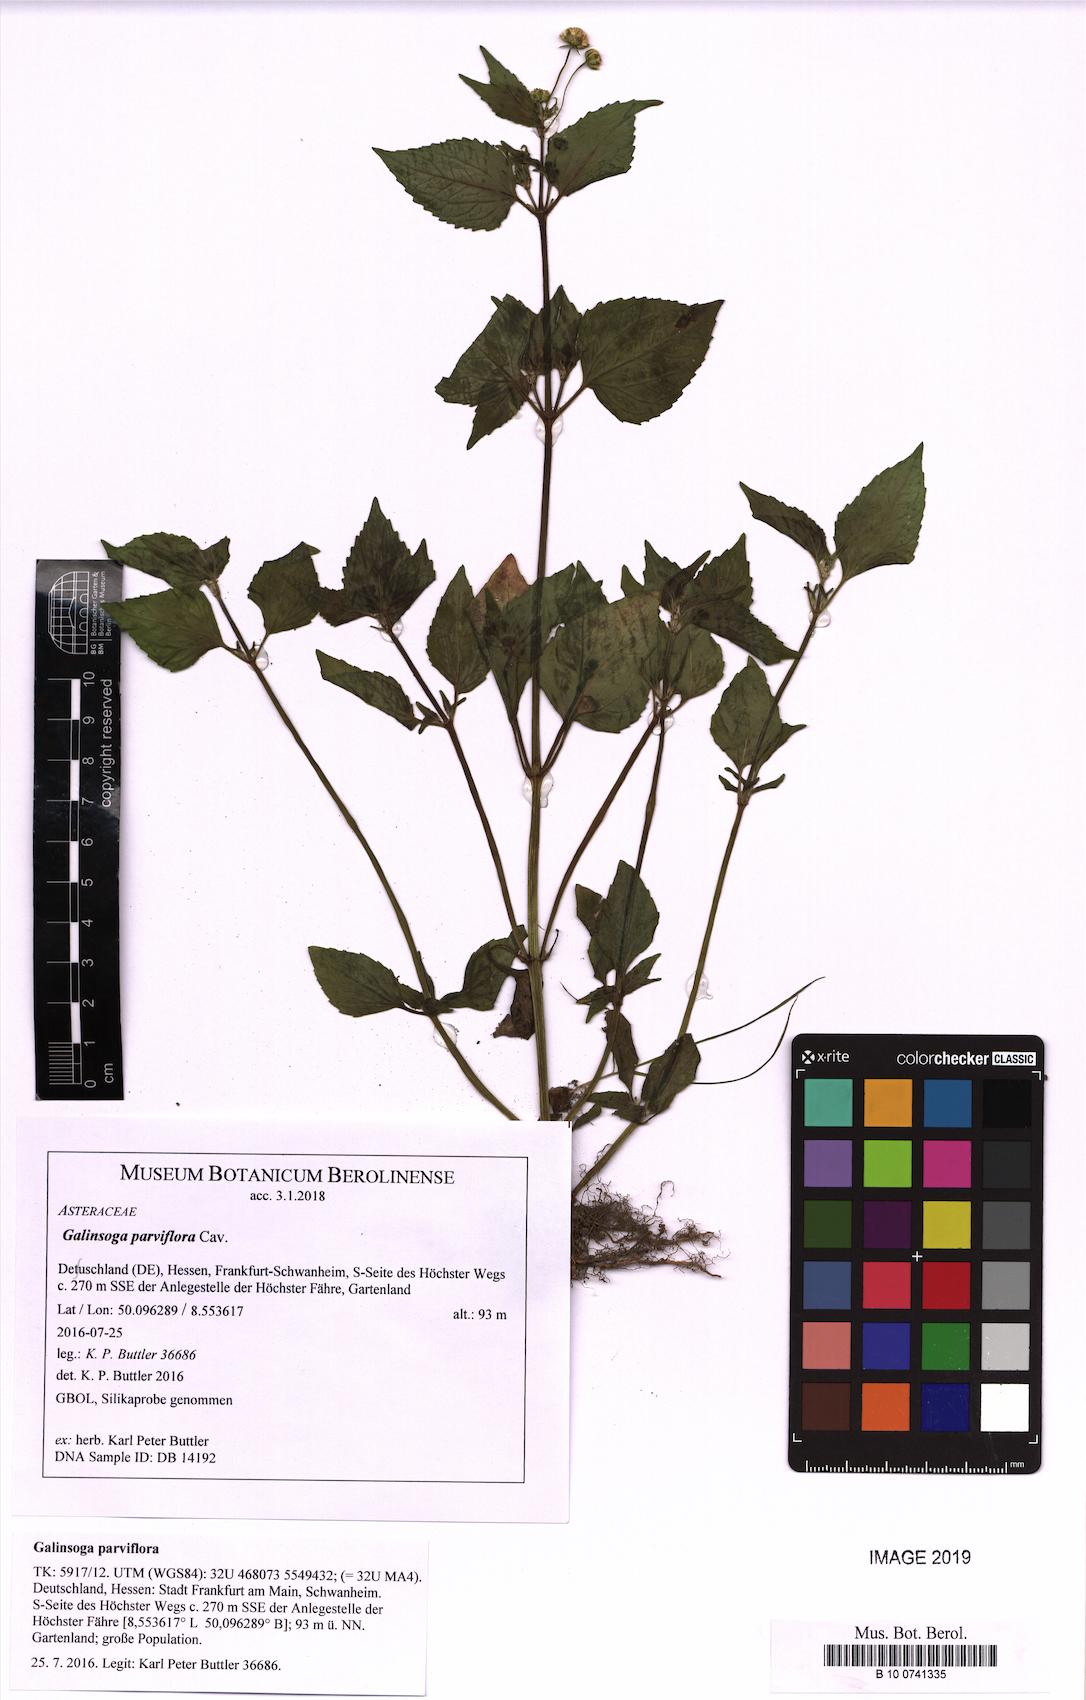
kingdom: Plantae
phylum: Tracheophyta
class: Magnoliopsida
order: Asterales
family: Asteraceae
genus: Galinsoga
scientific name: Galinsoga parviflora
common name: Gallant soldier
